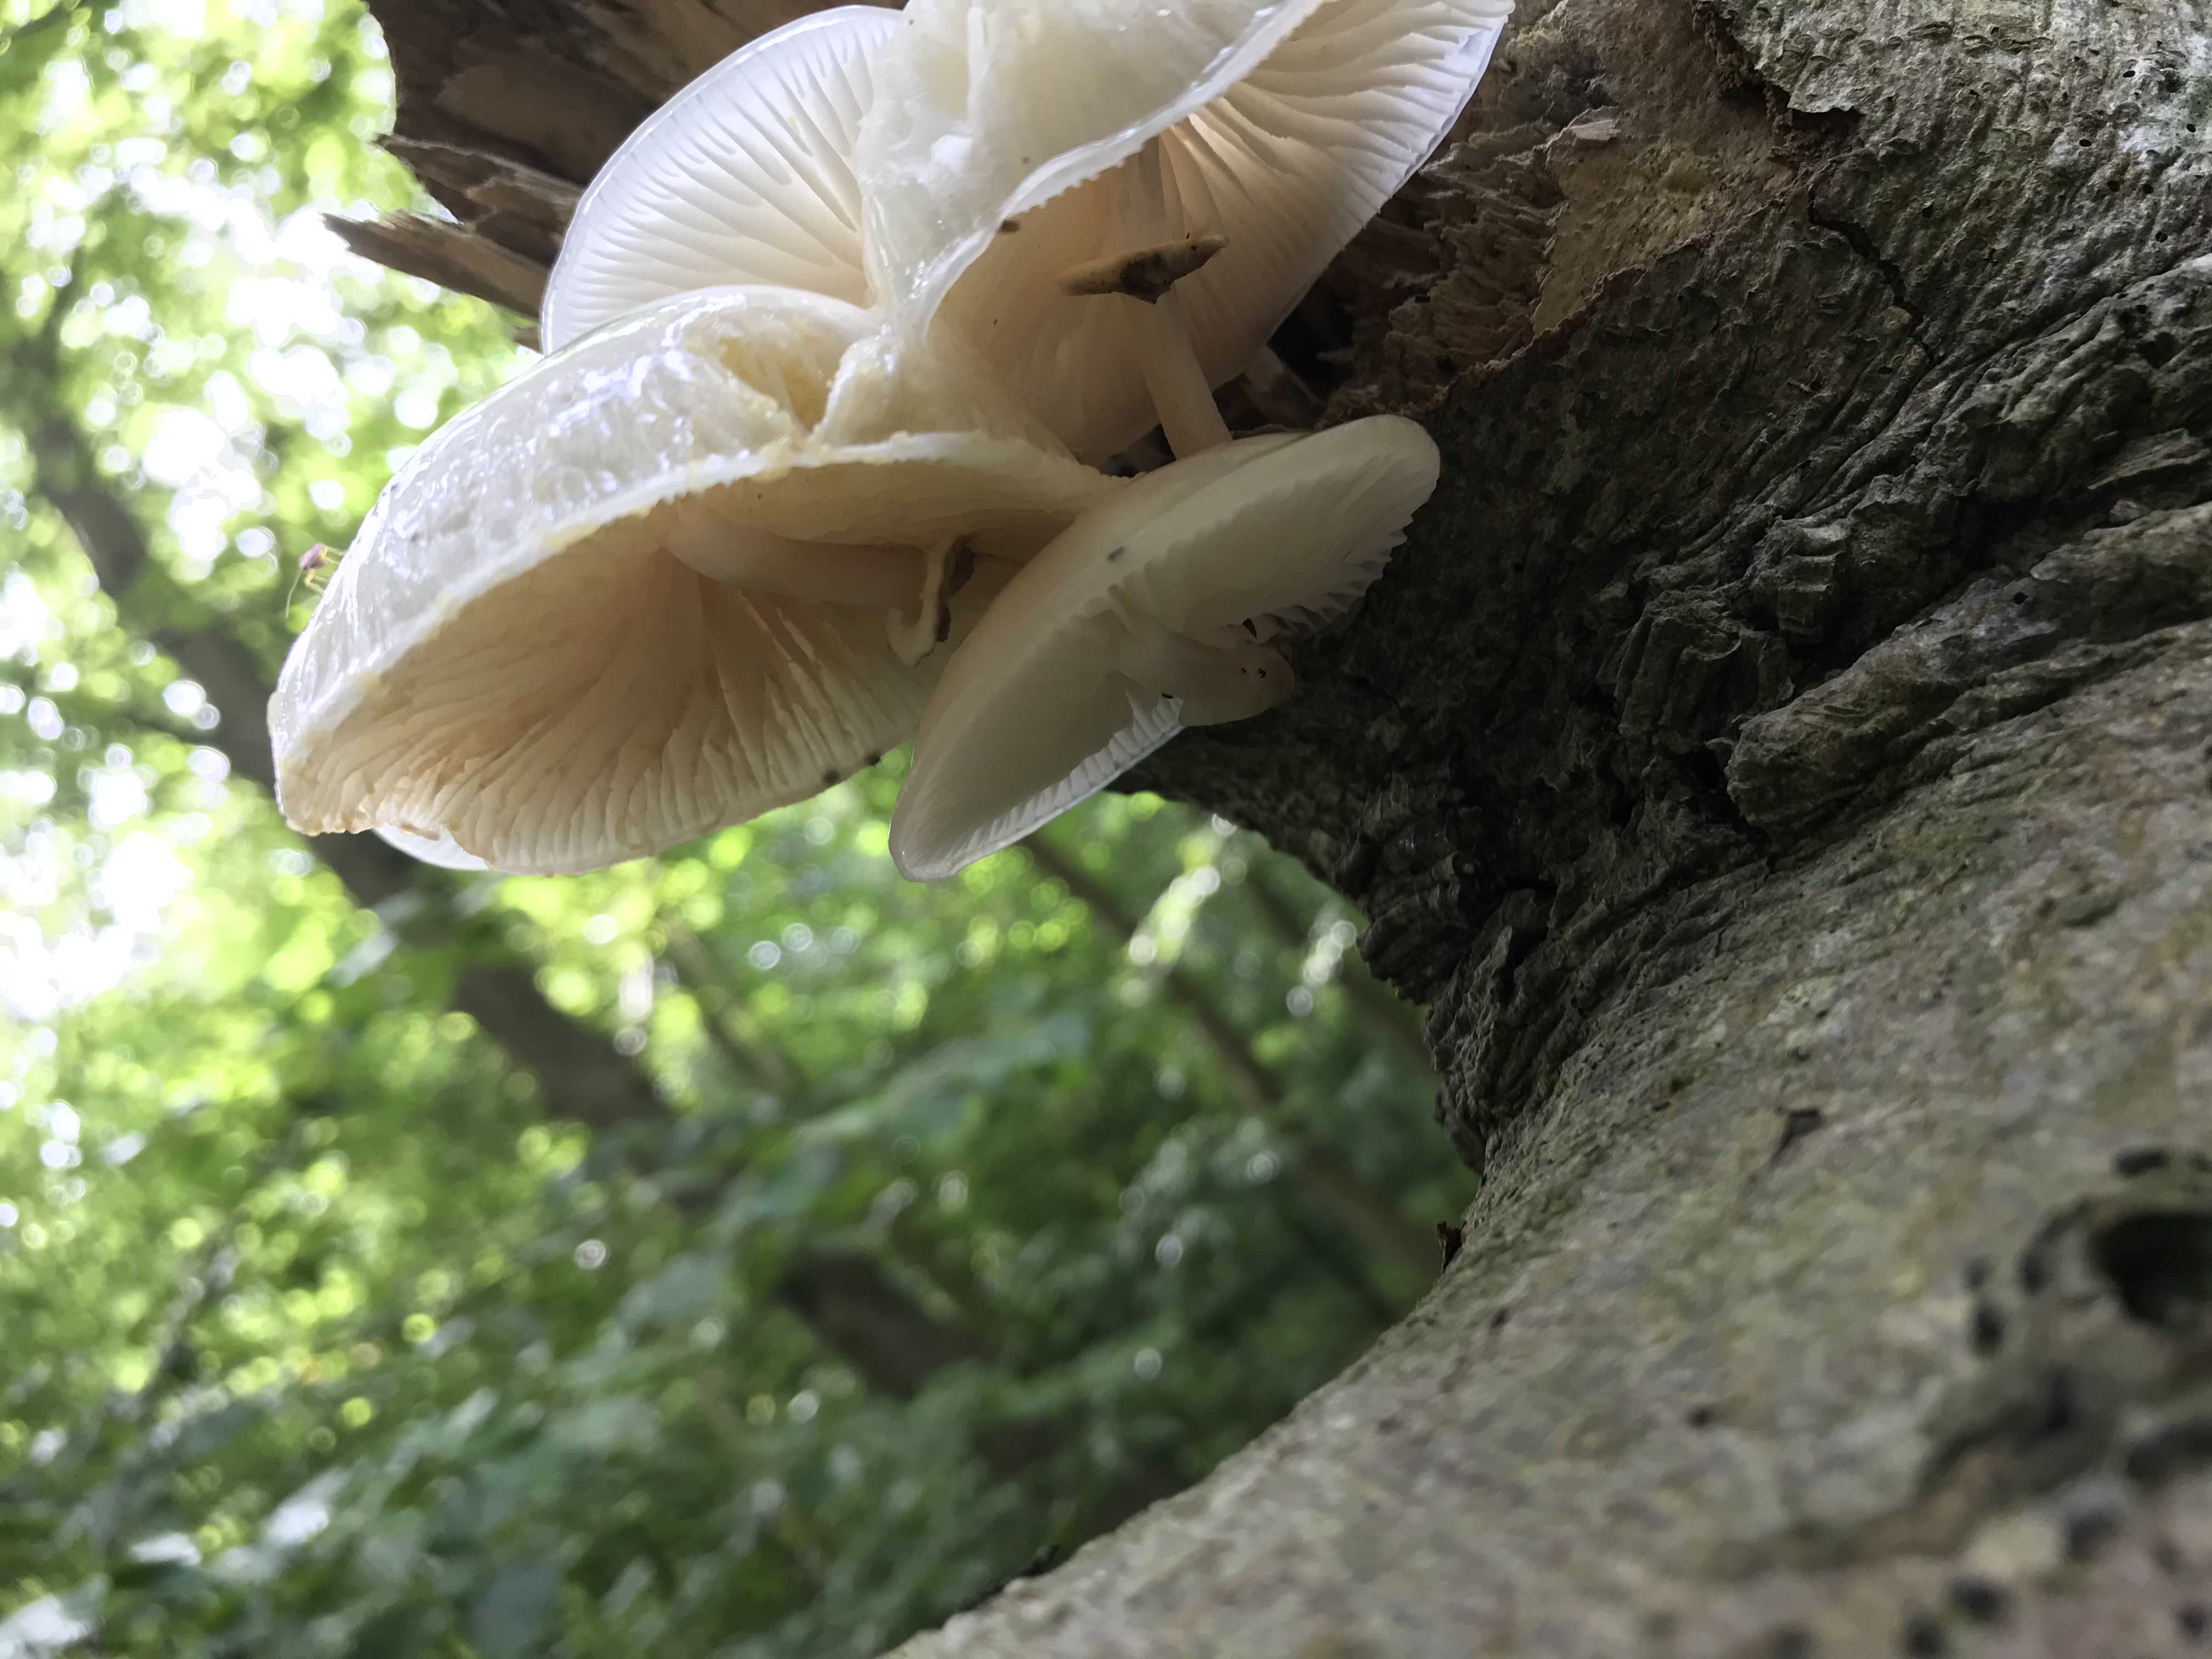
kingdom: Fungi
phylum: Basidiomycota
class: Agaricomycetes
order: Agaricales
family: Physalacriaceae
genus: Mucidula
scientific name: Mucidula mucida
